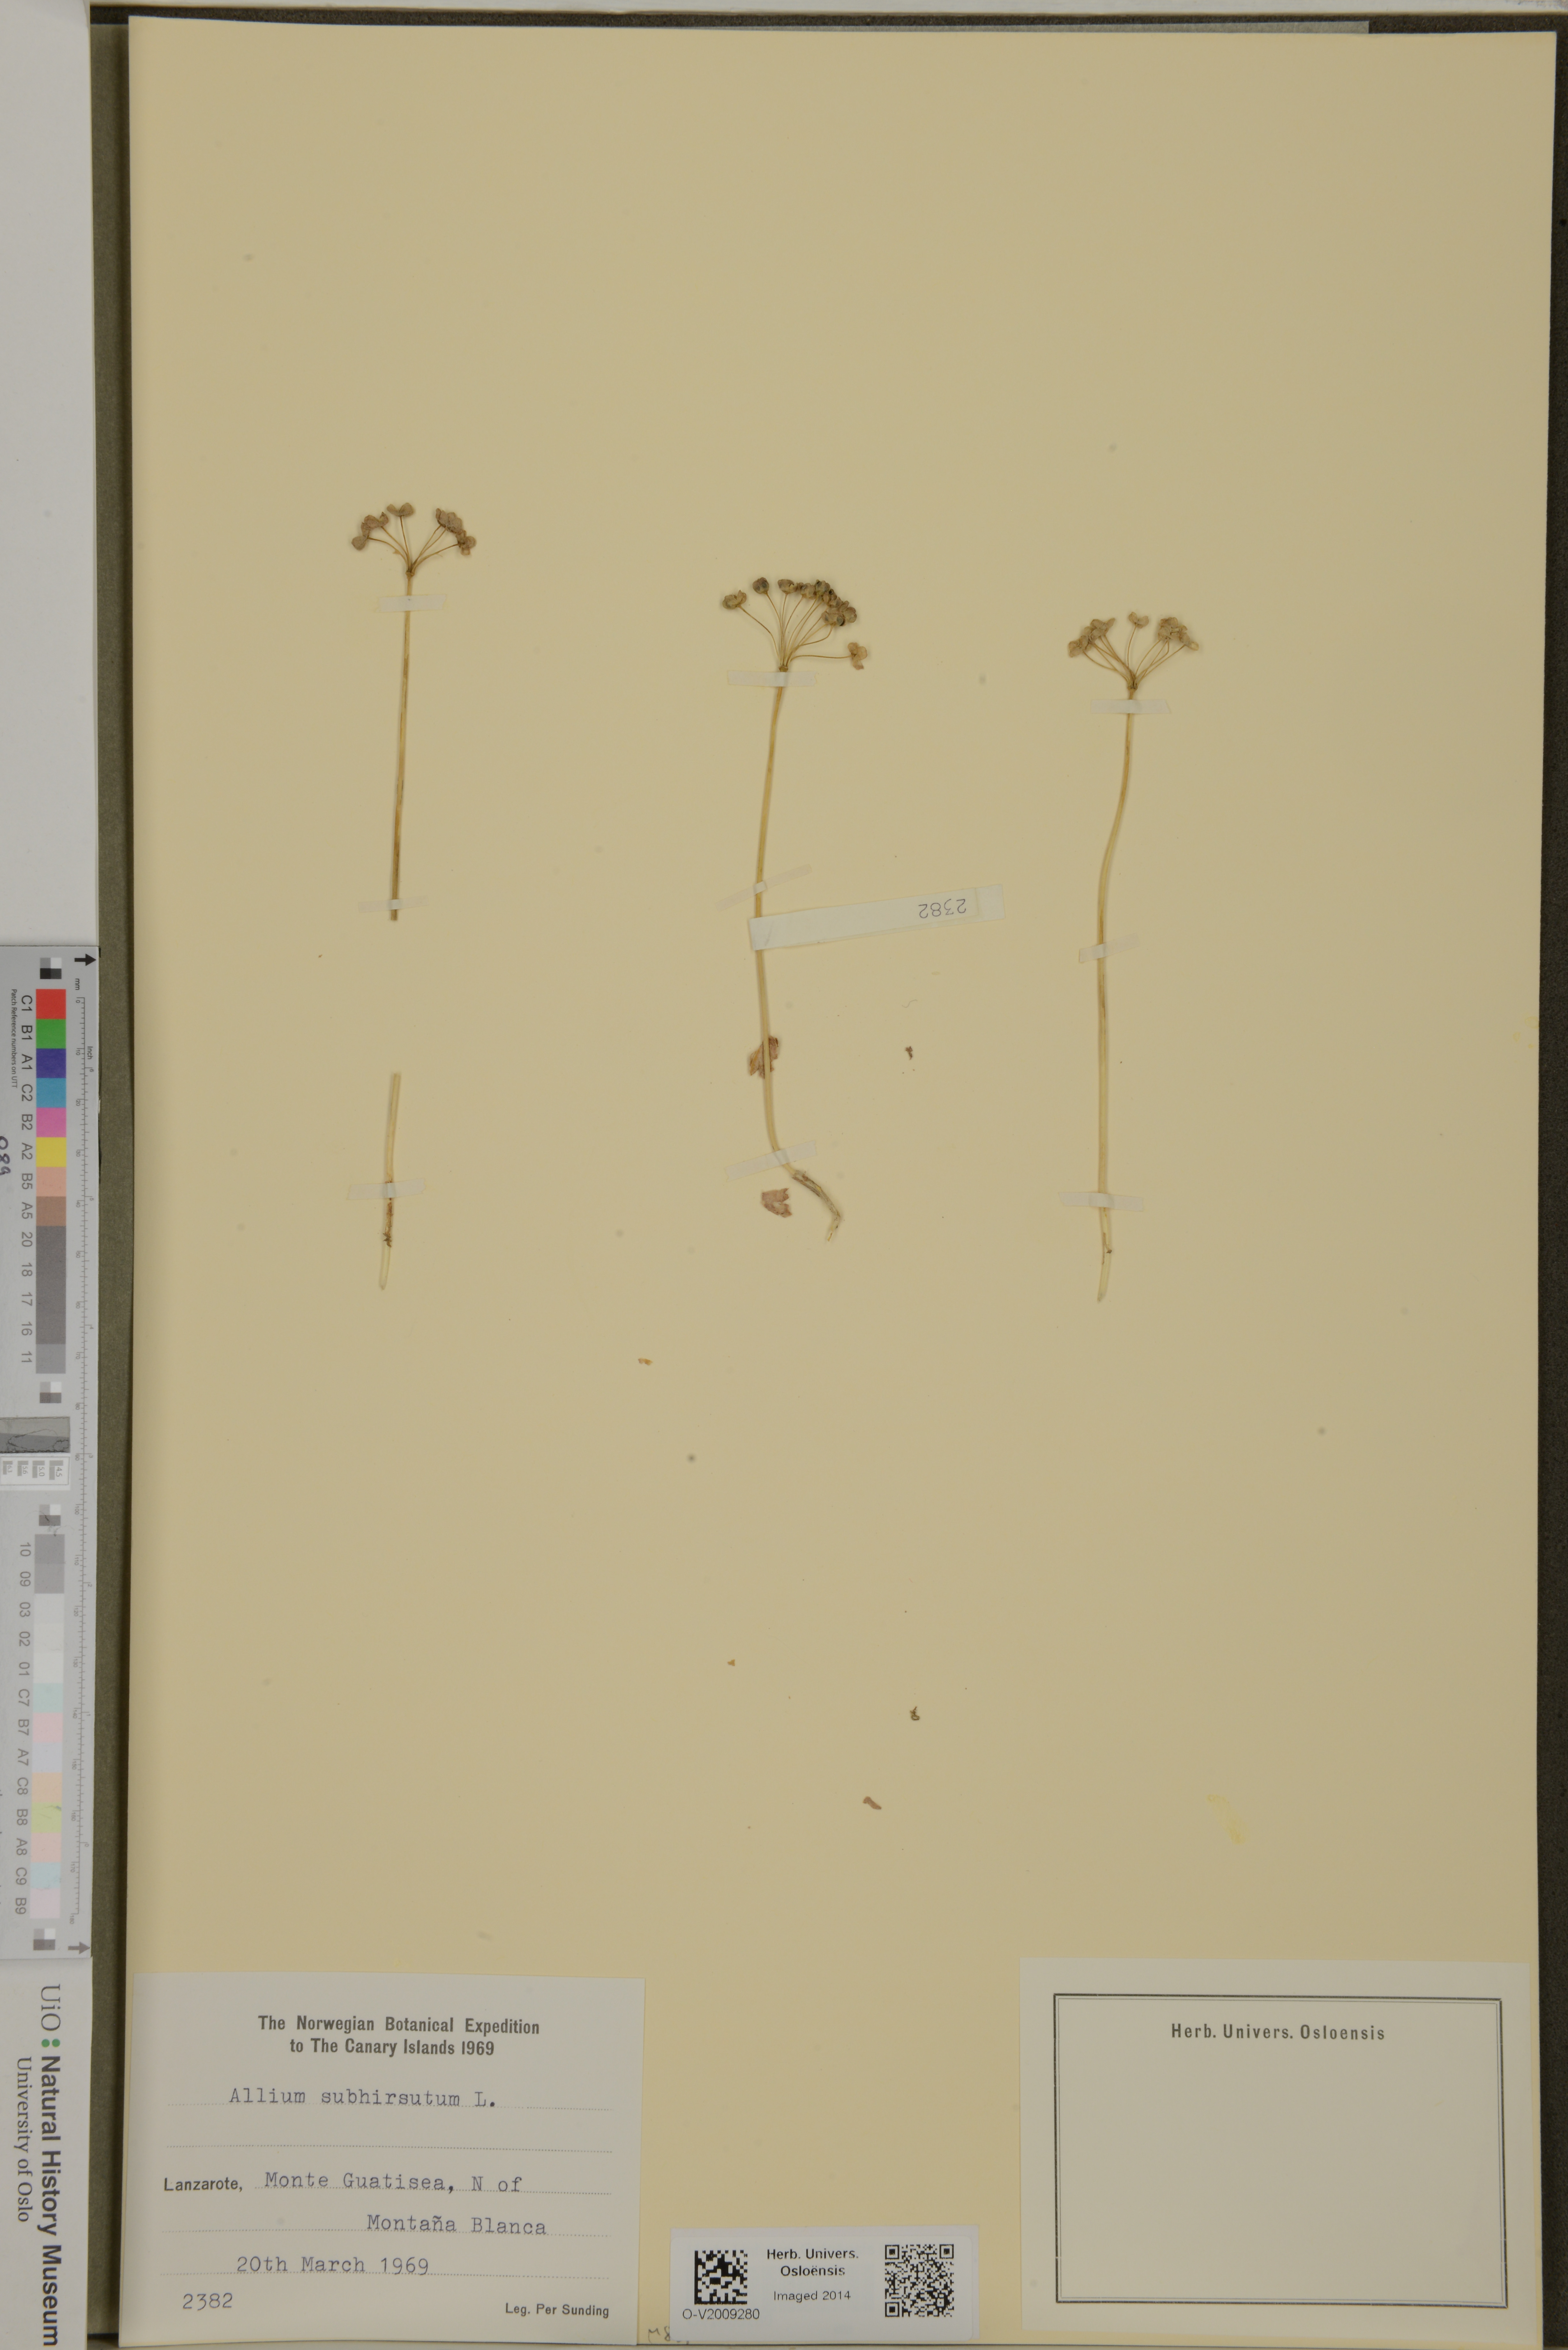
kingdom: Plantae
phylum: Tracheophyta
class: Liliopsida
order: Asparagales
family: Amaryllidaceae
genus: Allium
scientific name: Allium subhirsutum
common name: Hairy garlic
